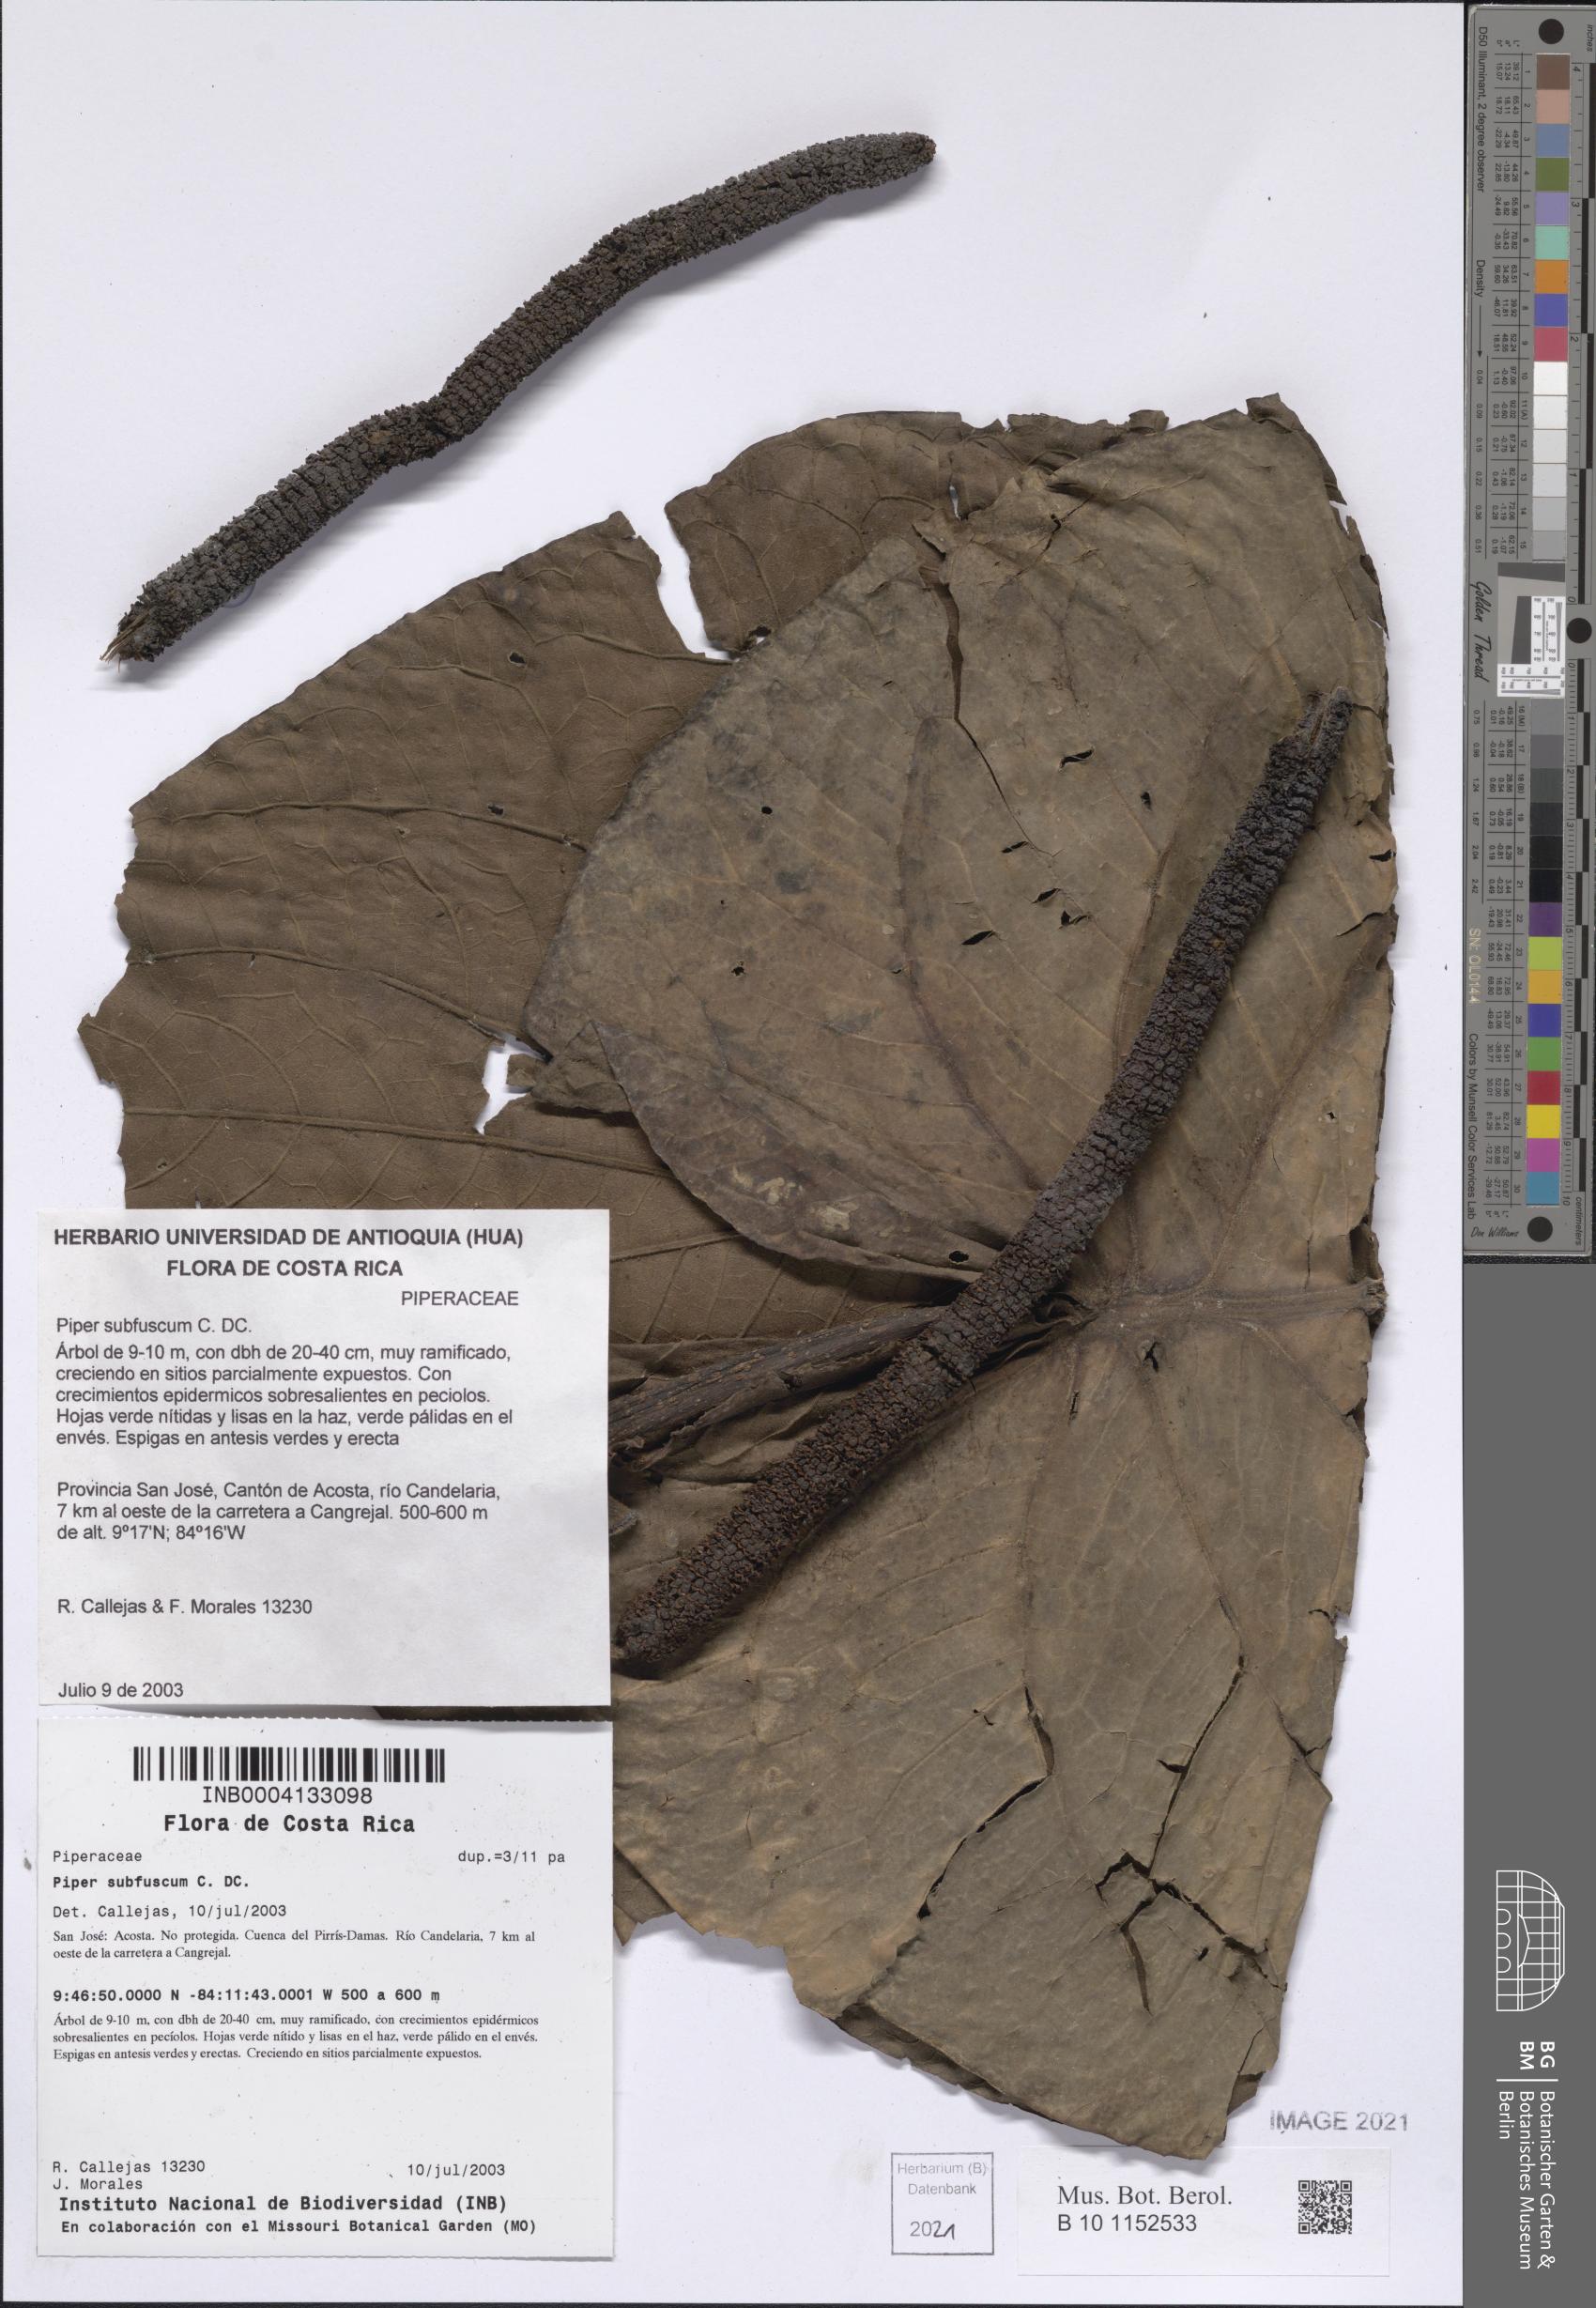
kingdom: Plantae
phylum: Tracheophyta
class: Magnoliopsida
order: Piperales
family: Piperaceae
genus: Piper
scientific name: Piper subfuscum
